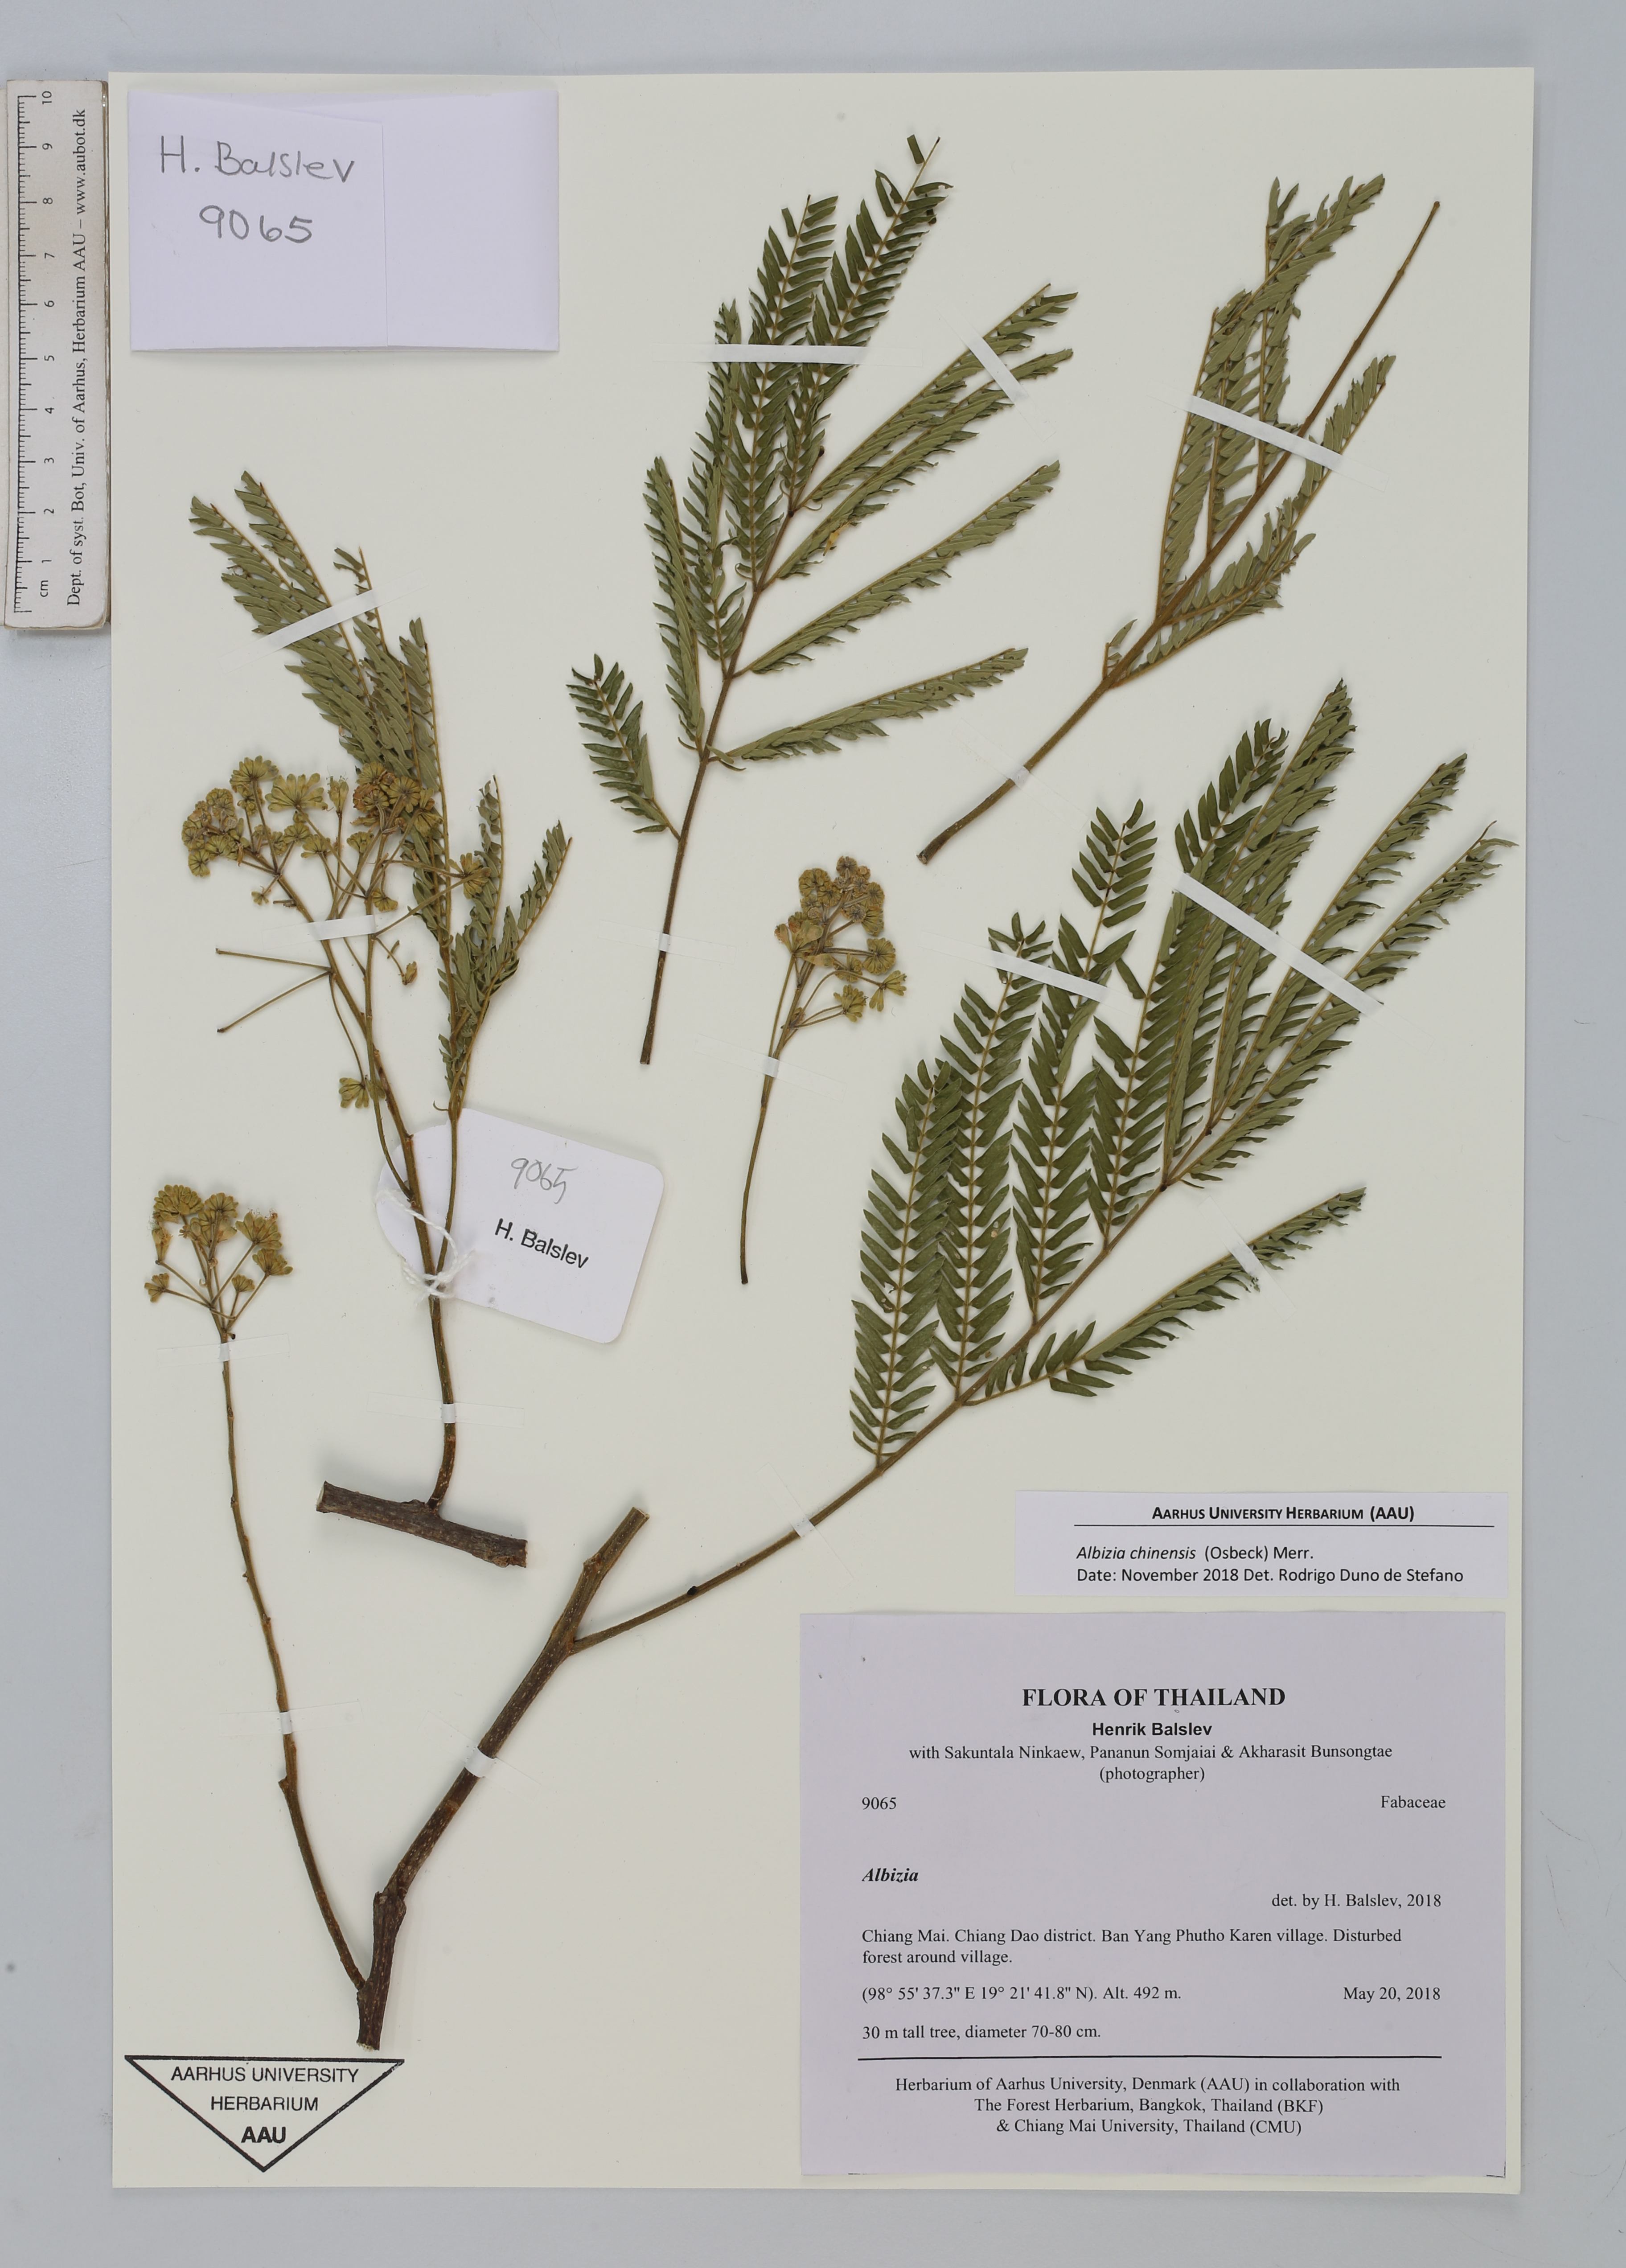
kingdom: Plantae
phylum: Tracheophyta
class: Magnoliopsida
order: Fabales
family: Fabaceae
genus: Albizia
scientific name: Albizia chinensis
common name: Chinese albizia
